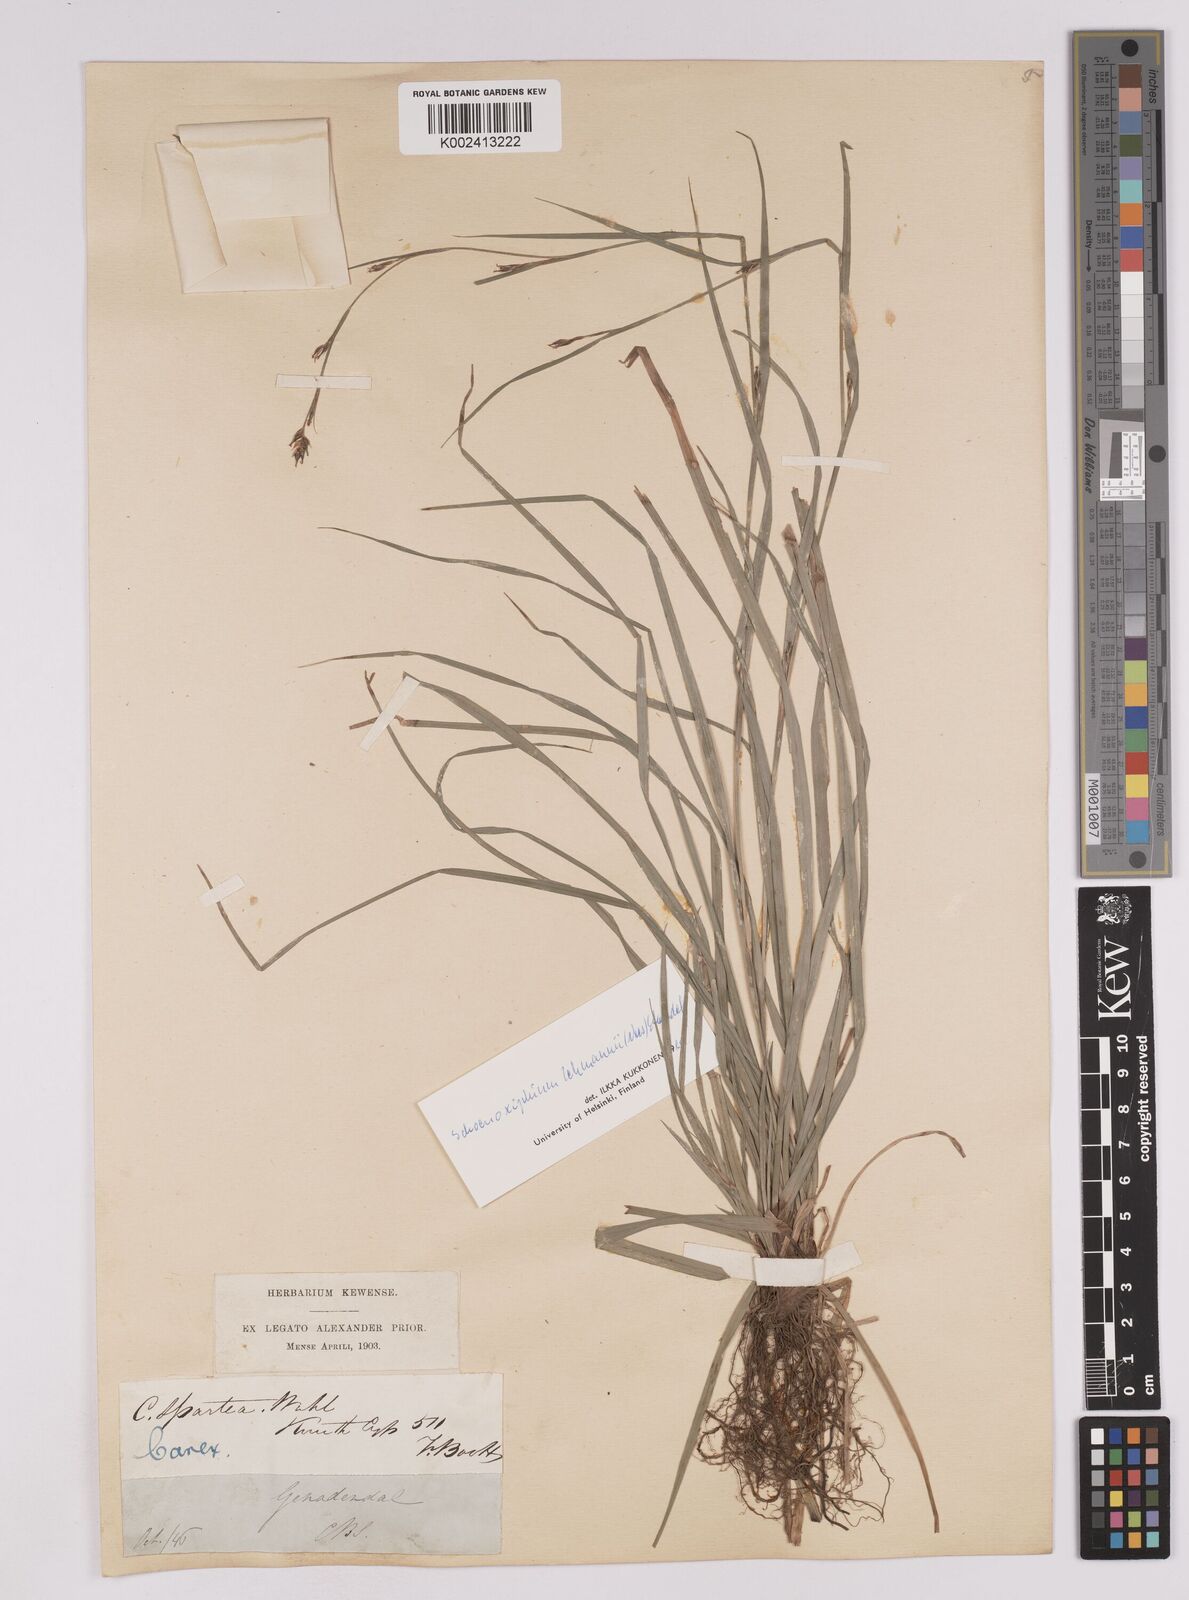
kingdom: Plantae
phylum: Tracheophyta
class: Liliopsida
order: Poales
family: Cyperaceae
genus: Carex
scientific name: Carex uhligii
